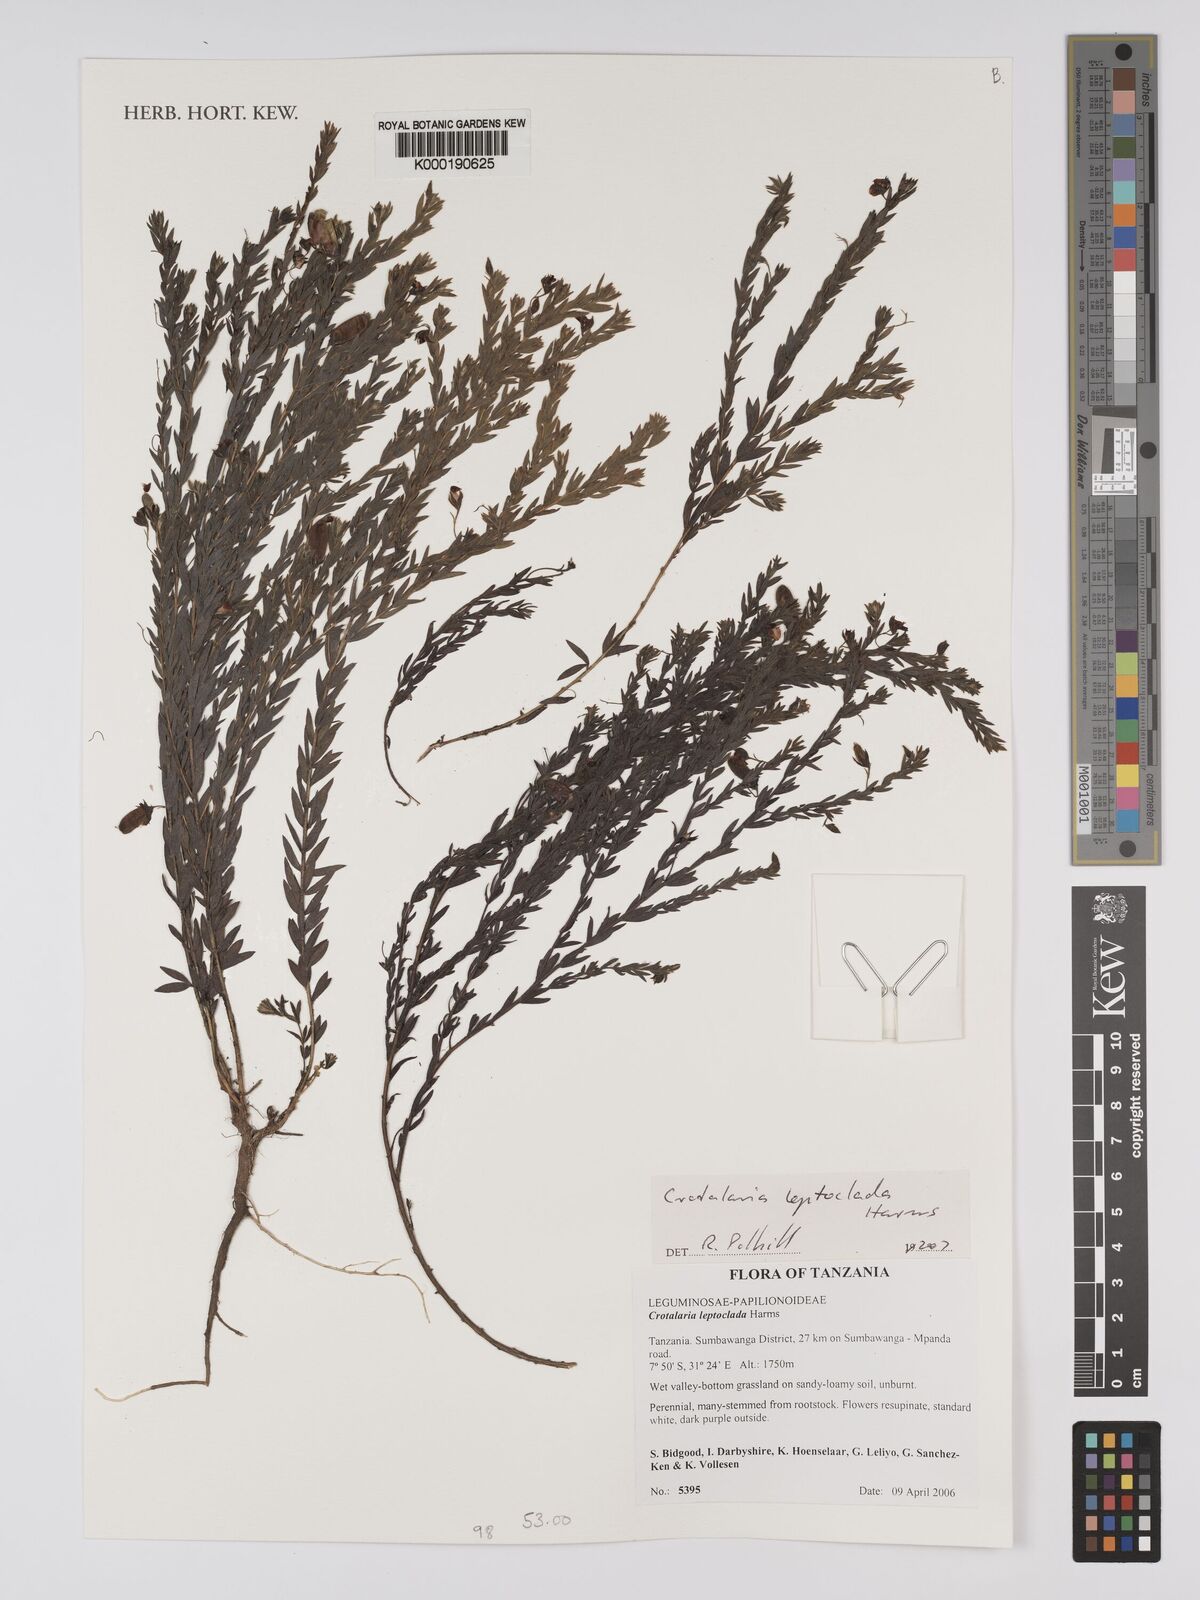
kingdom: Plantae
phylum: Tracheophyta
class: Magnoliopsida
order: Fabales
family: Fabaceae
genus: Crotalaria
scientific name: Crotalaria leptoclada
